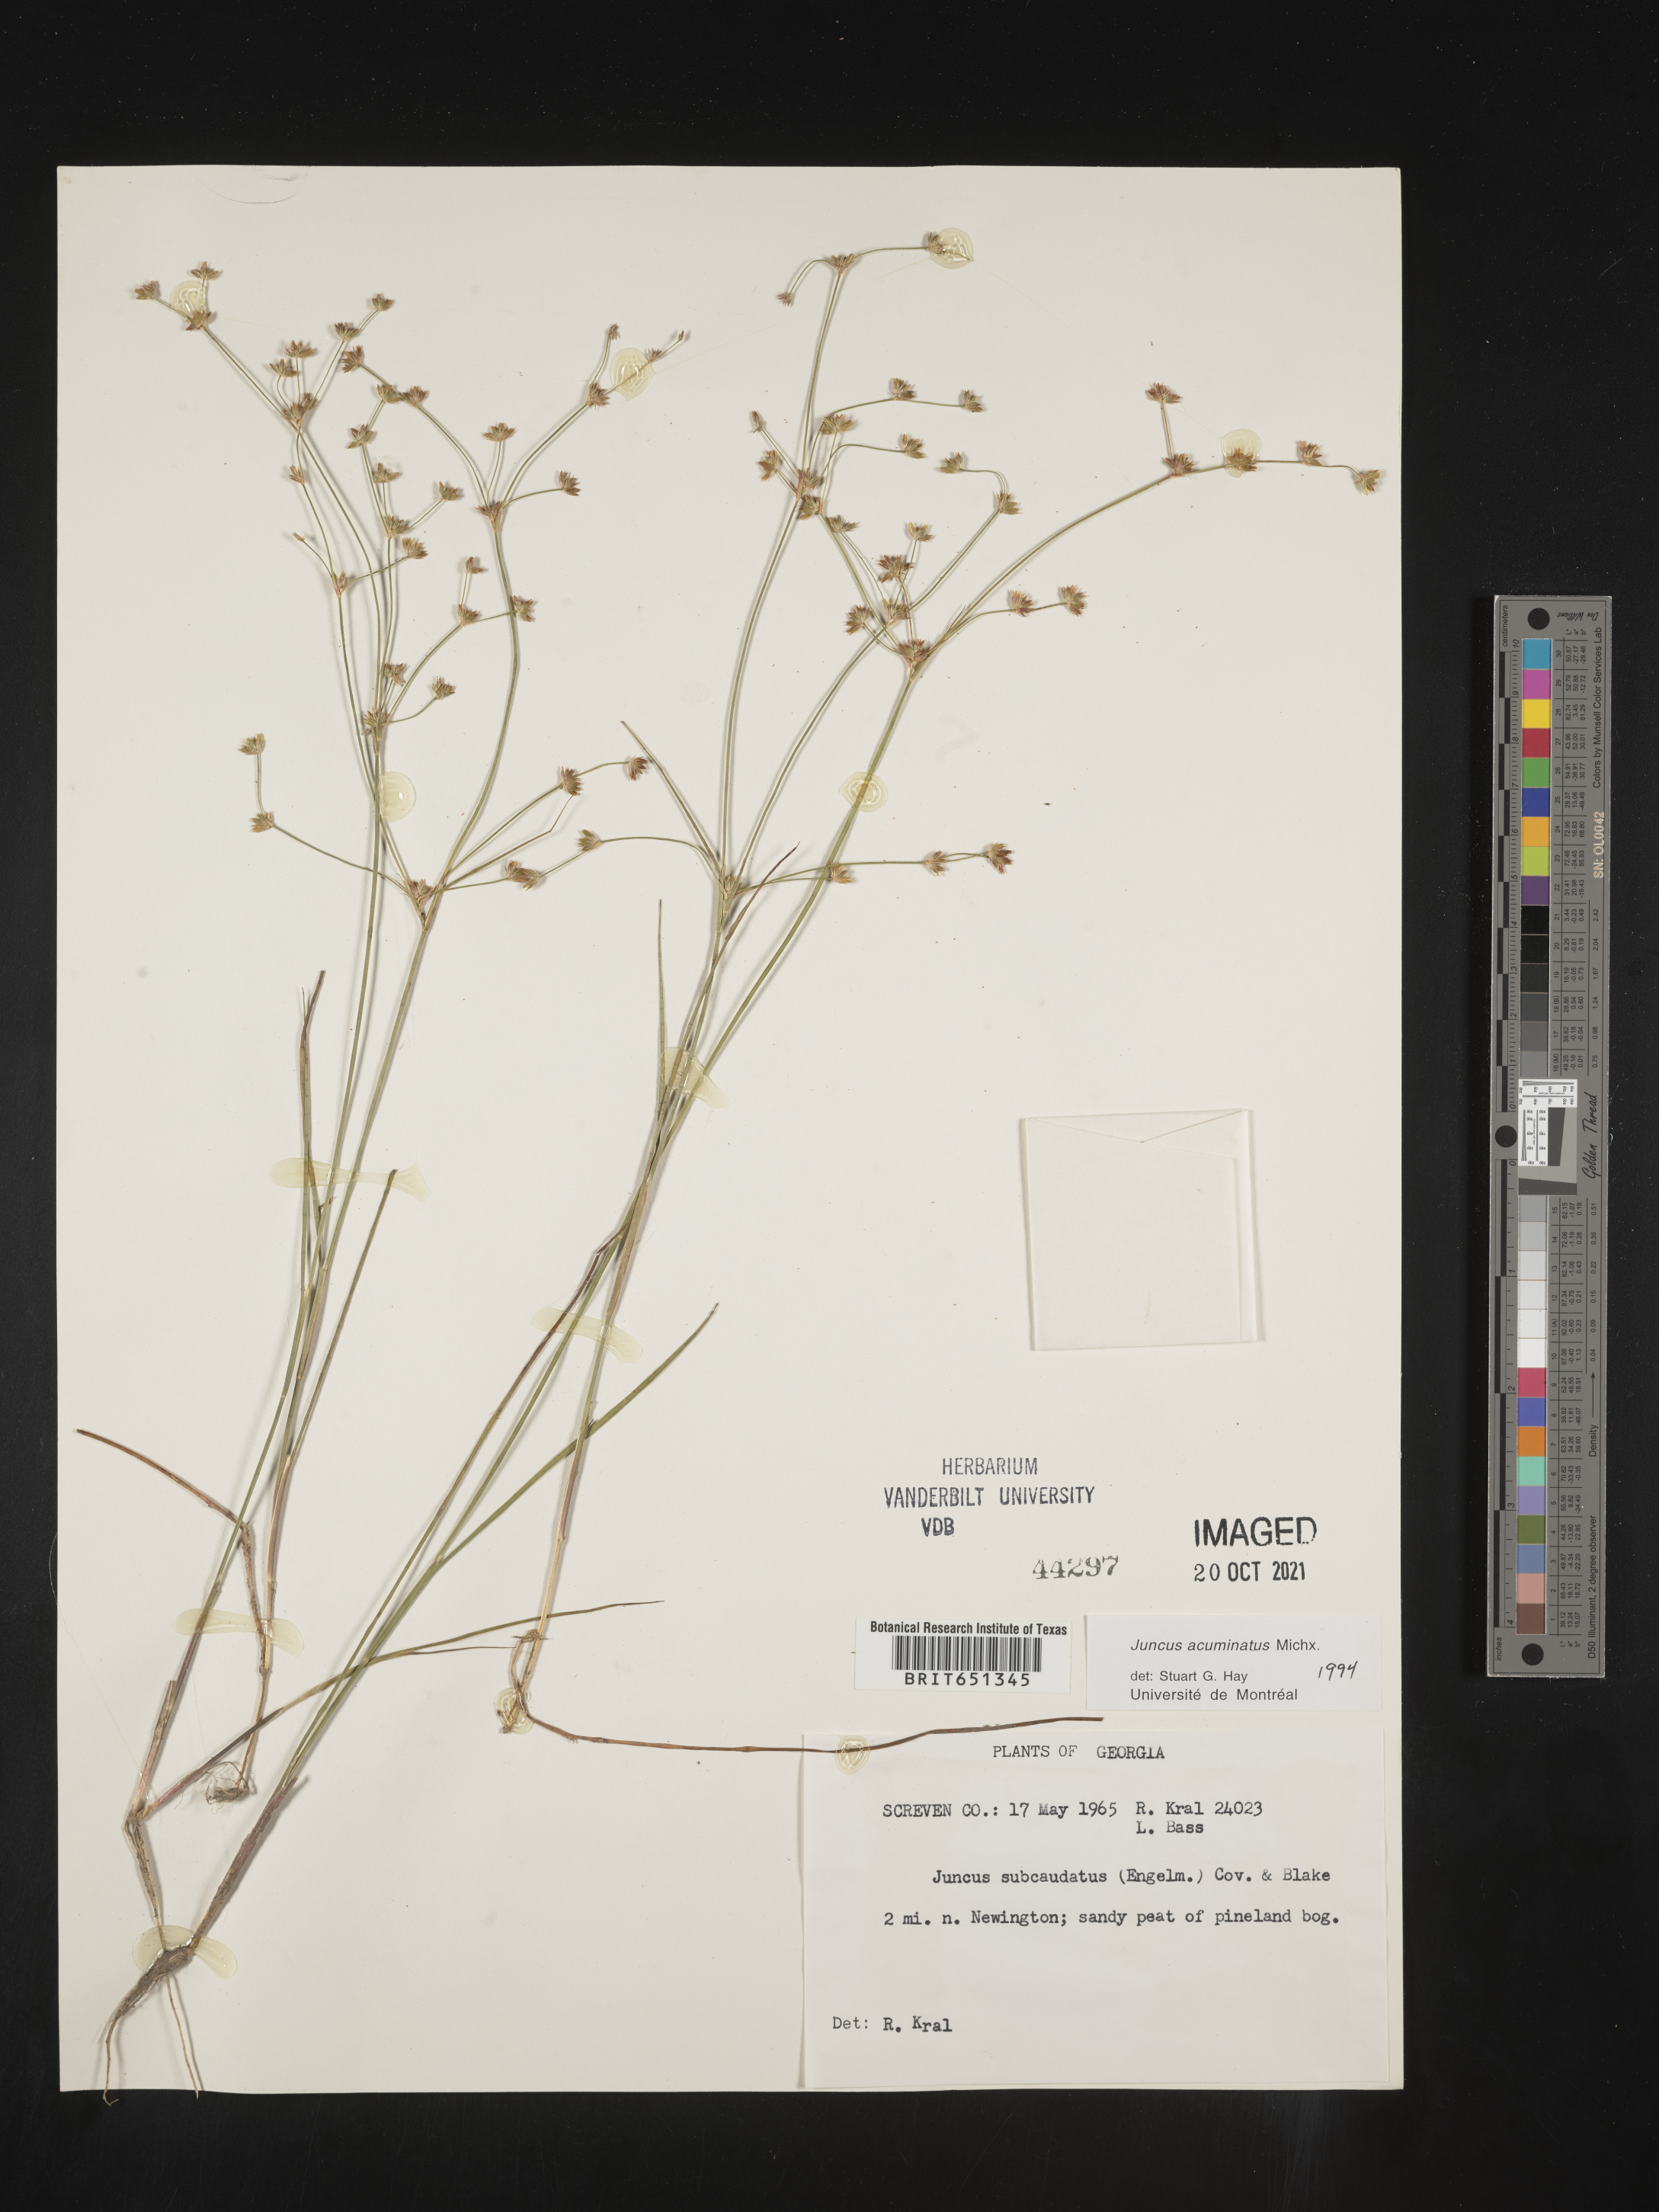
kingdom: Plantae
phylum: Tracheophyta
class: Liliopsida
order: Poales
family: Juncaceae
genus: Juncus
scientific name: Juncus acuminatus
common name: Knotty-leaved rush
